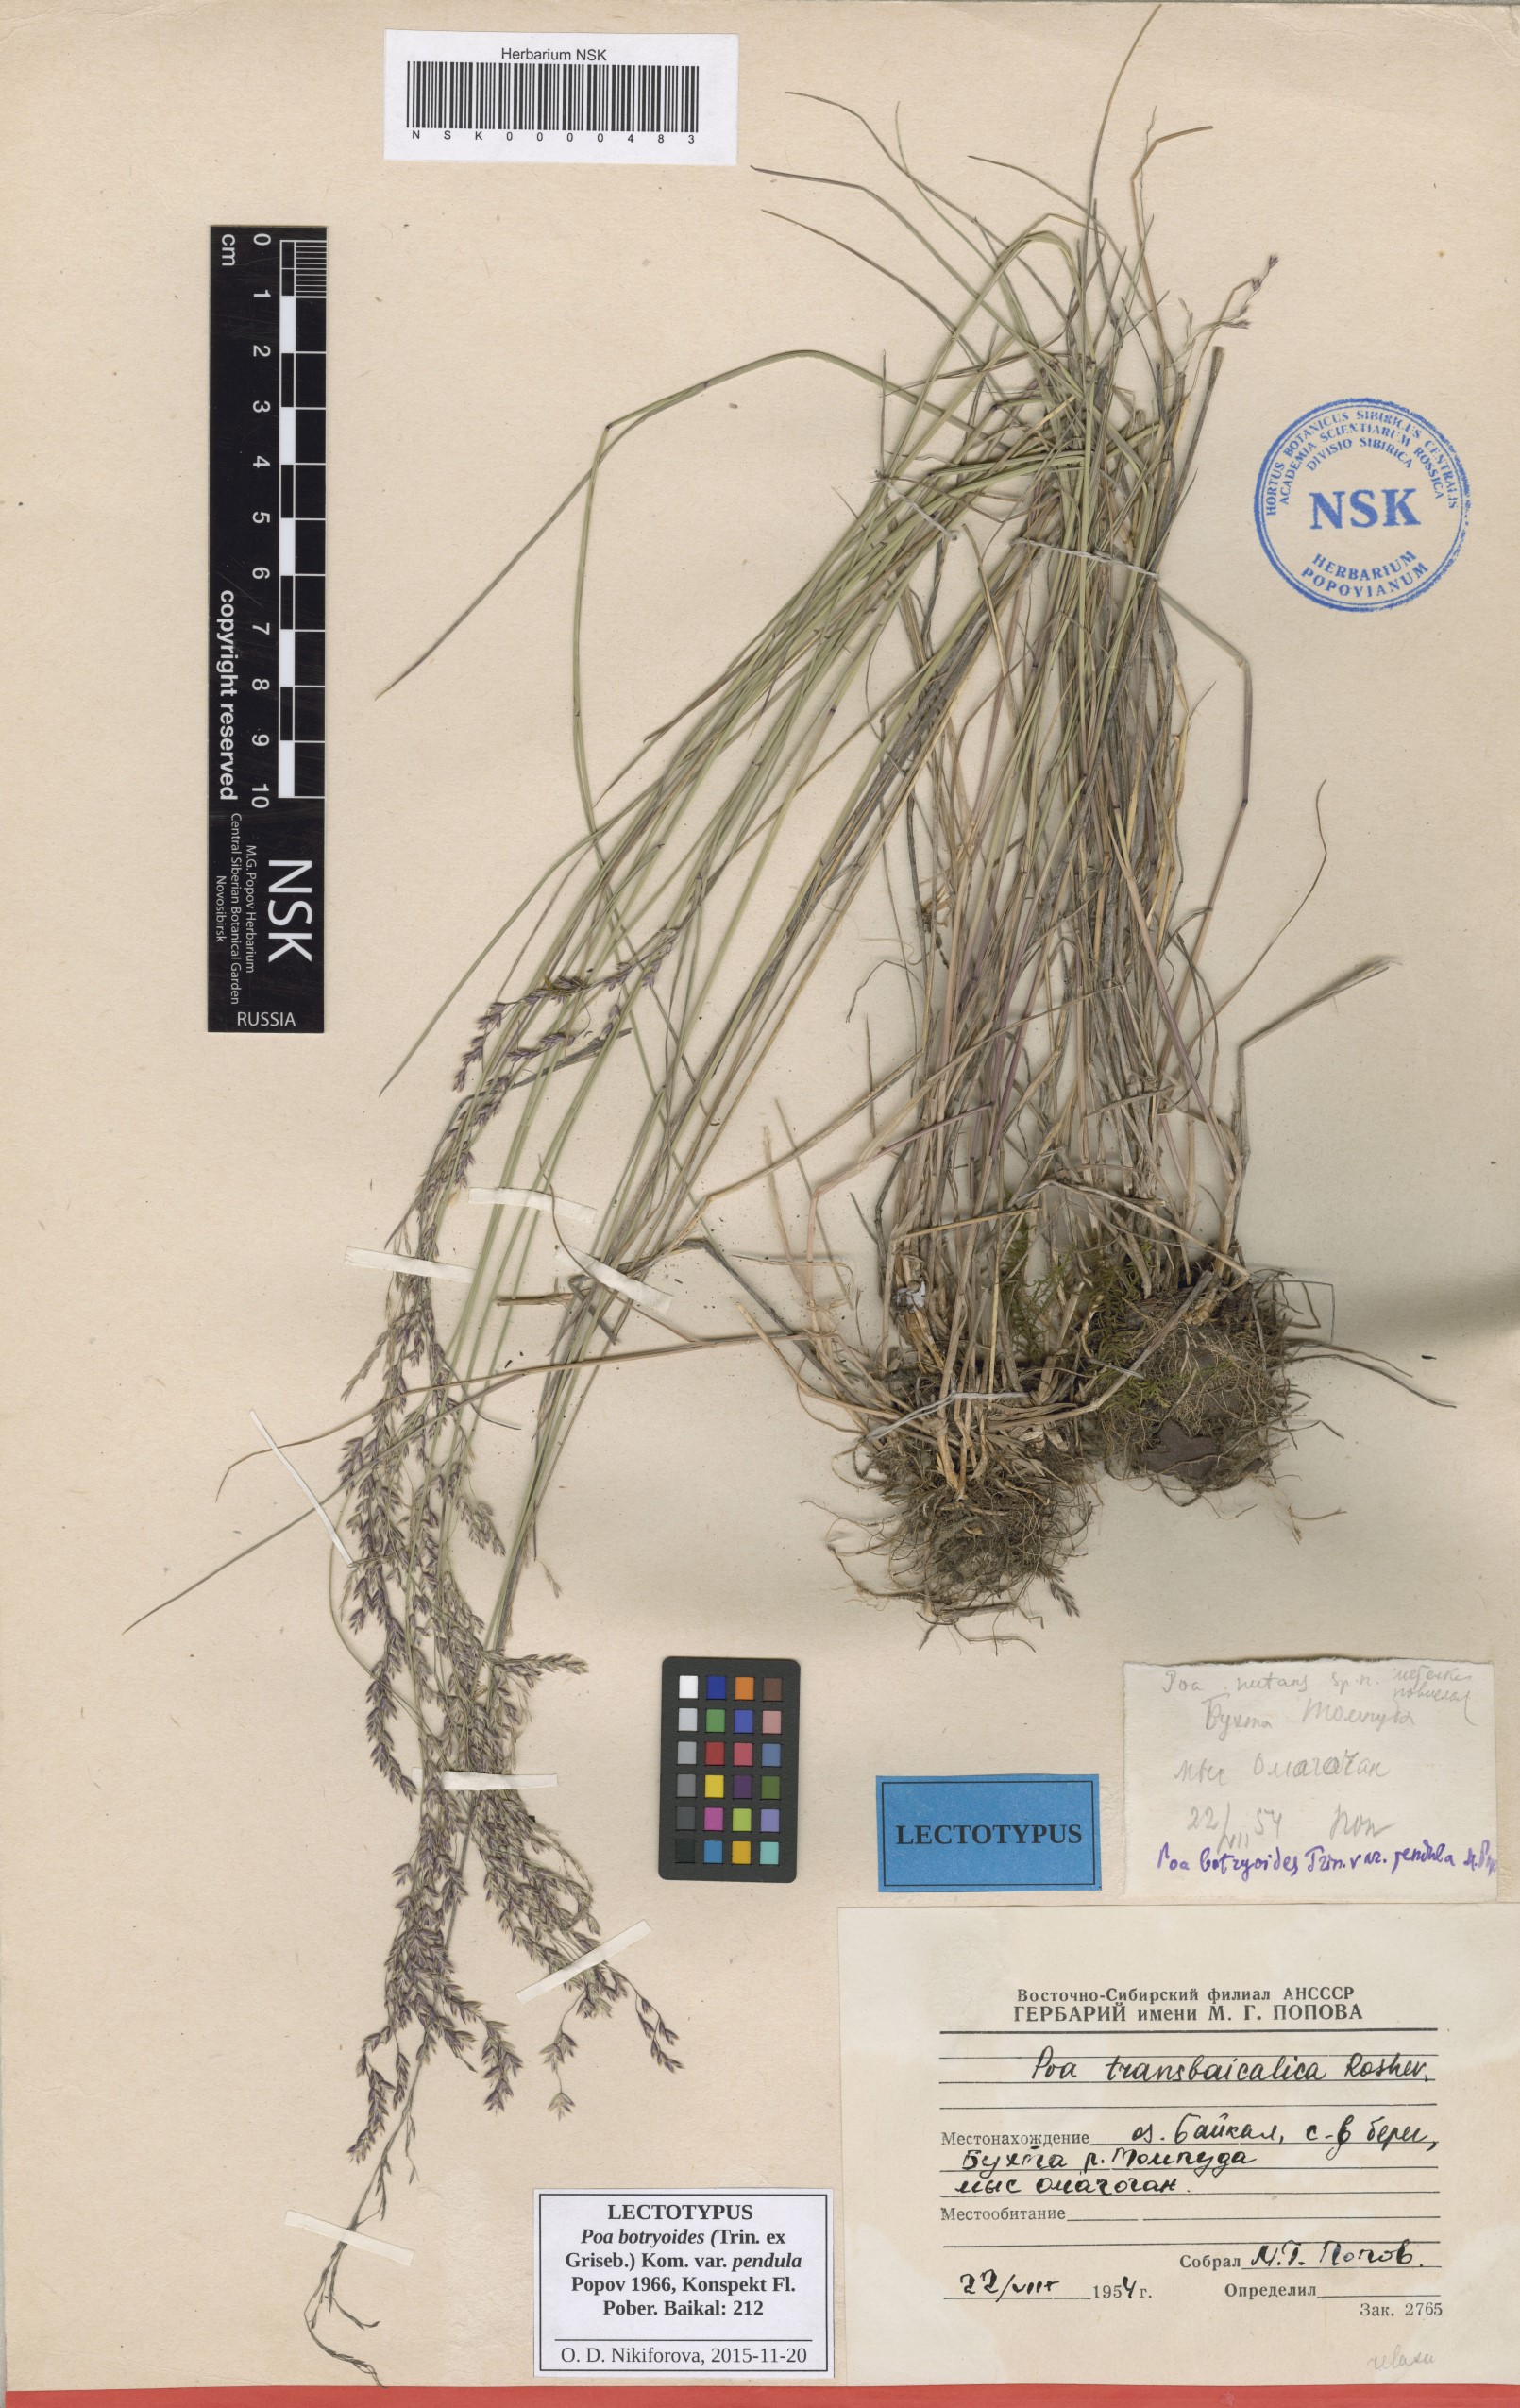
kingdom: Plantae
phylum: Tracheophyta
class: Liliopsida
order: Poales
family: Poaceae
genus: Poa
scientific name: Poa attenuata
